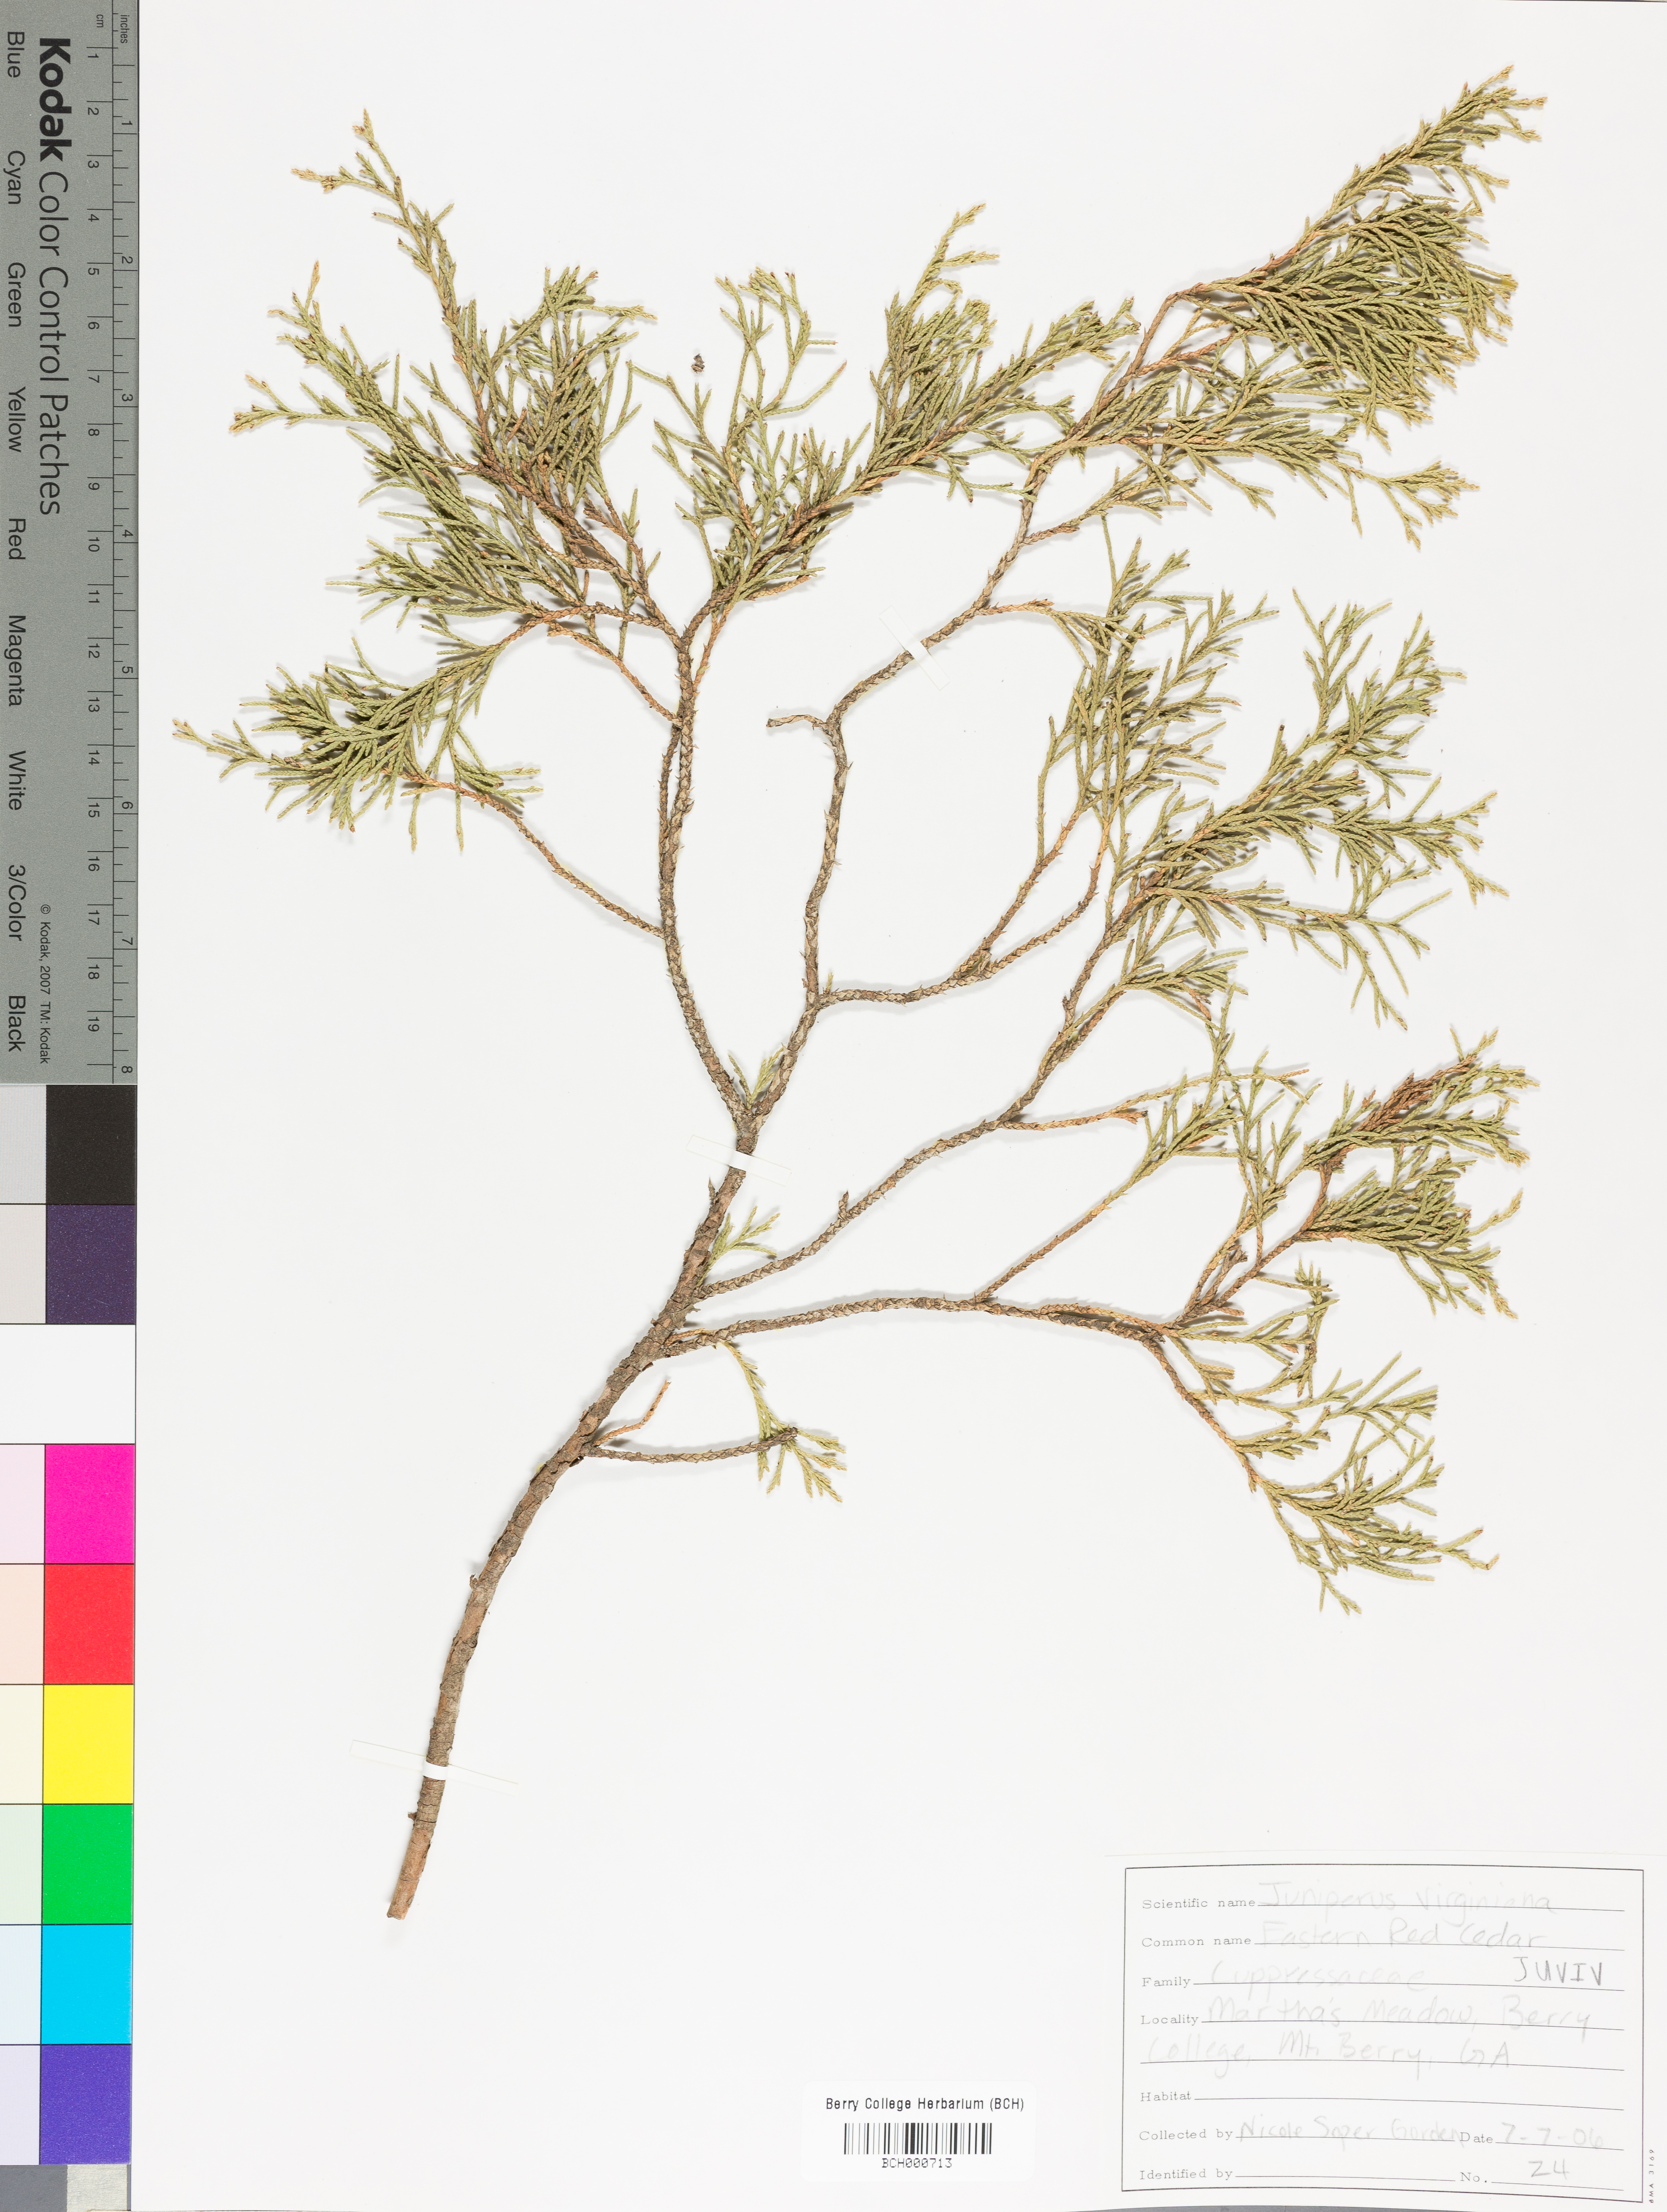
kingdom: Plantae
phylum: Tracheophyta
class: Pinopsida
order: Pinales
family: Cupressaceae
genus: Juniperus
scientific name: Juniperus virginiana
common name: Red juniper
